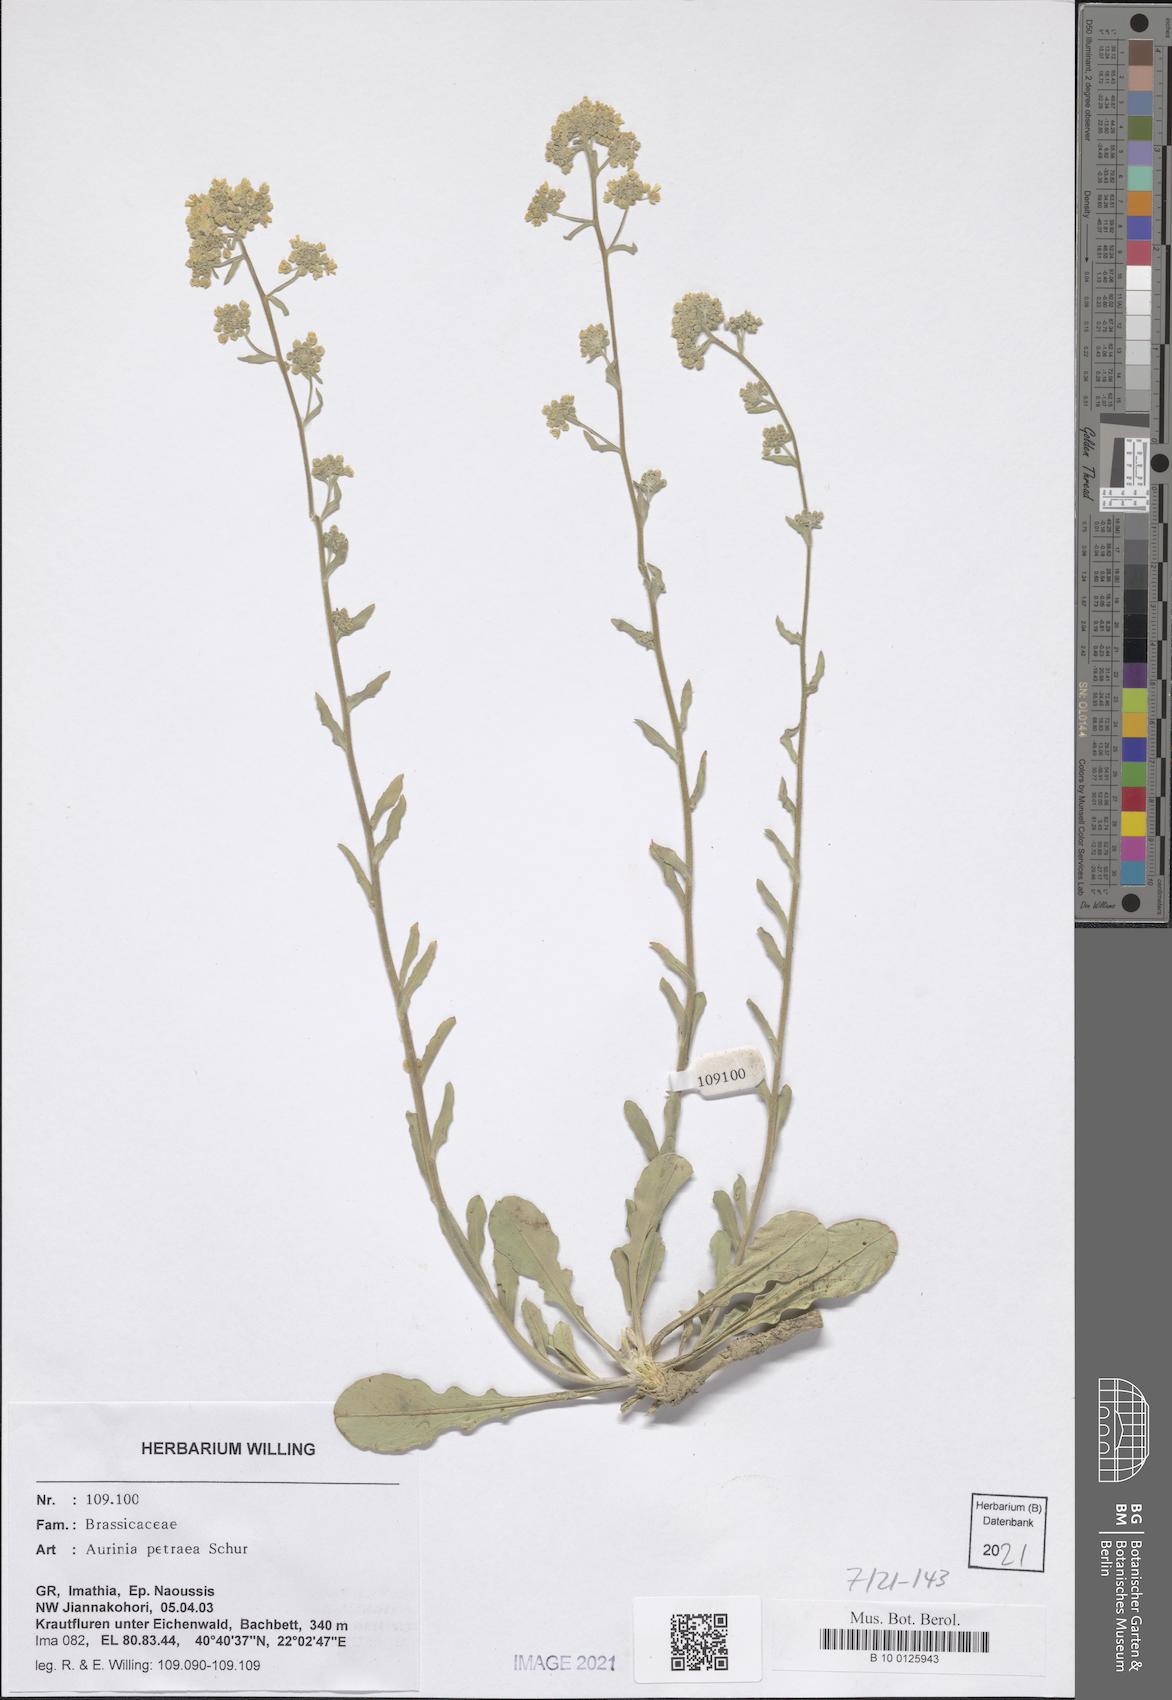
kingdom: Plantae
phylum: Tracheophyta
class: Magnoliopsida
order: Brassicales
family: Brassicaceae
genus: Aurinia
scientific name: Aurinia petraea
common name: Goldentuft
